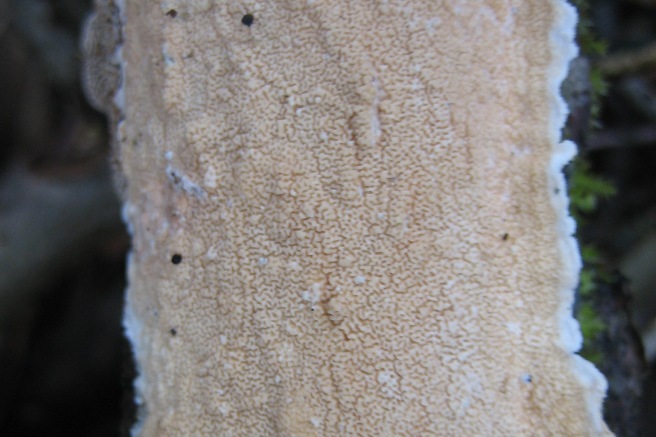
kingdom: Fungi
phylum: Basidiomycota
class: Agaricomycetes
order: Polyporales
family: Irpicaceae
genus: Byssomerulius
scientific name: Byssomerulius corium
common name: læder-åresvamp
